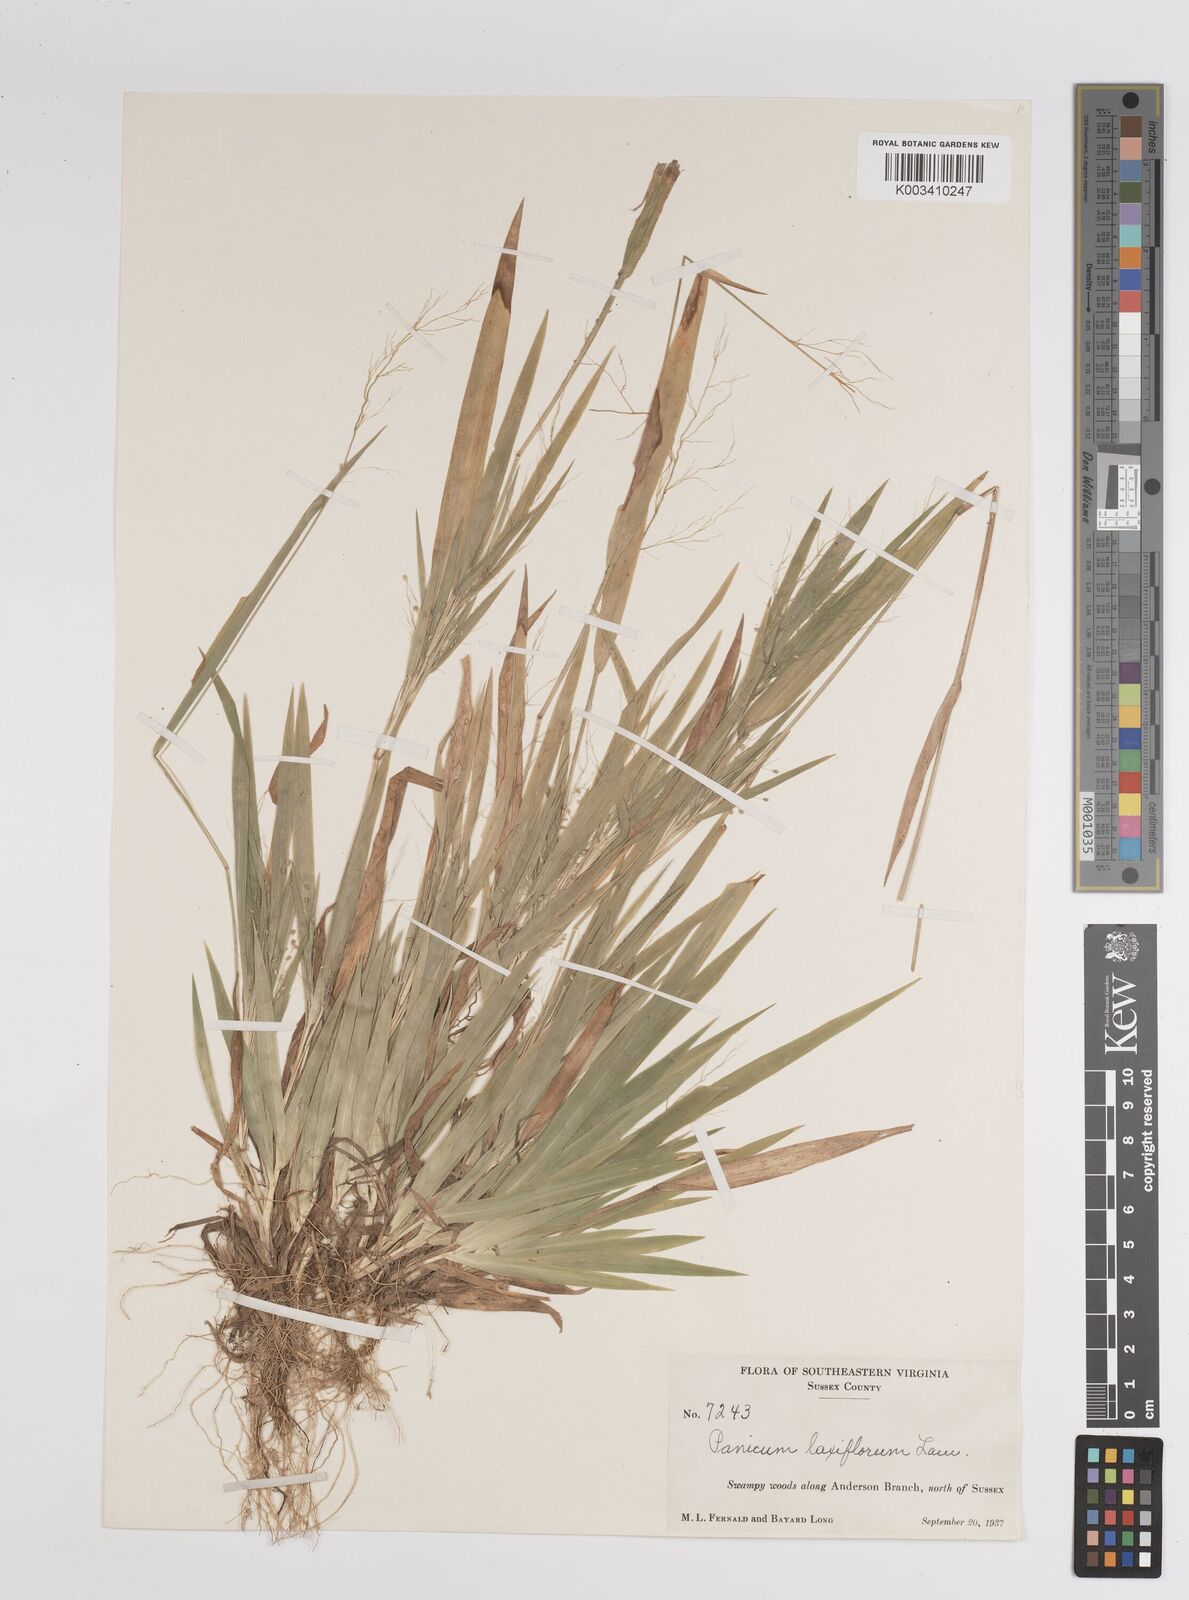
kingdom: Plantae
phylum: Tracheophyta
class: Liliopsida
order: Poales
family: Poaceae
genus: Dichanthelium
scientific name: Dichanthelium laxiflorum
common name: Soft-tuft panic grass
